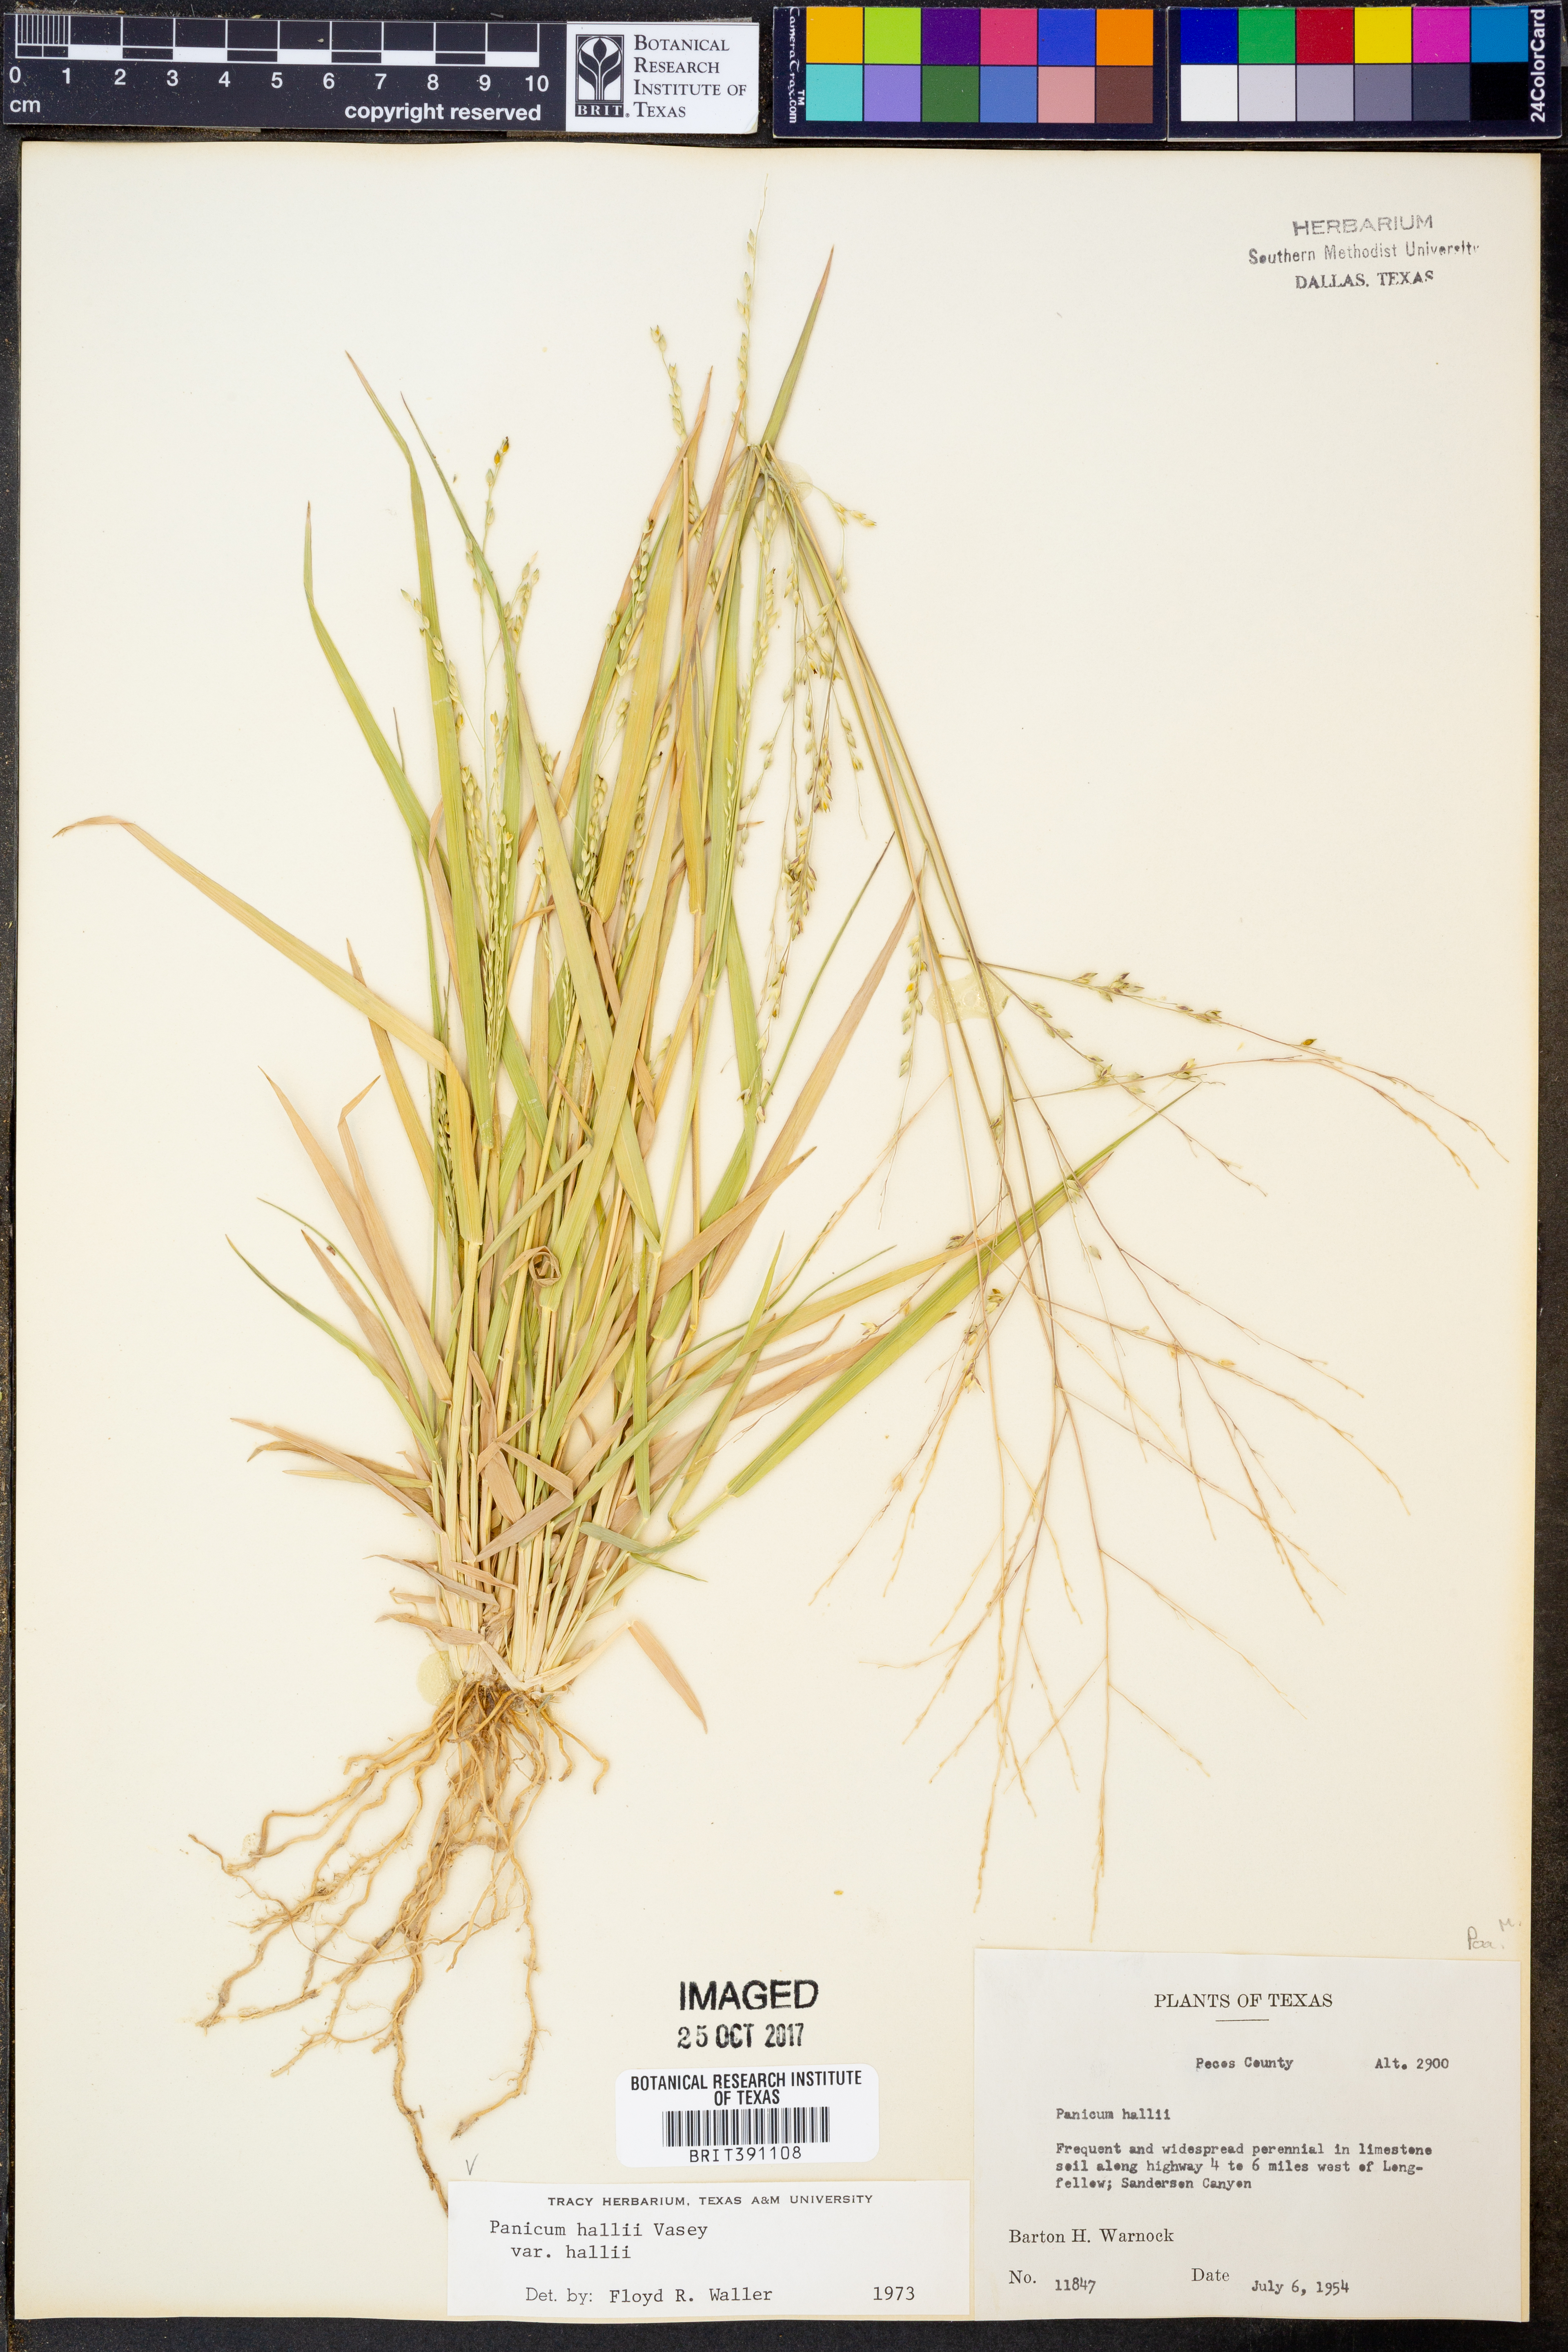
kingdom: Plantae
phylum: Tracheophyta
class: Liliopsida
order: Poales
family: Poaceae
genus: Panicum
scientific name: Panicum hallii
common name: Hall's witchgrass
